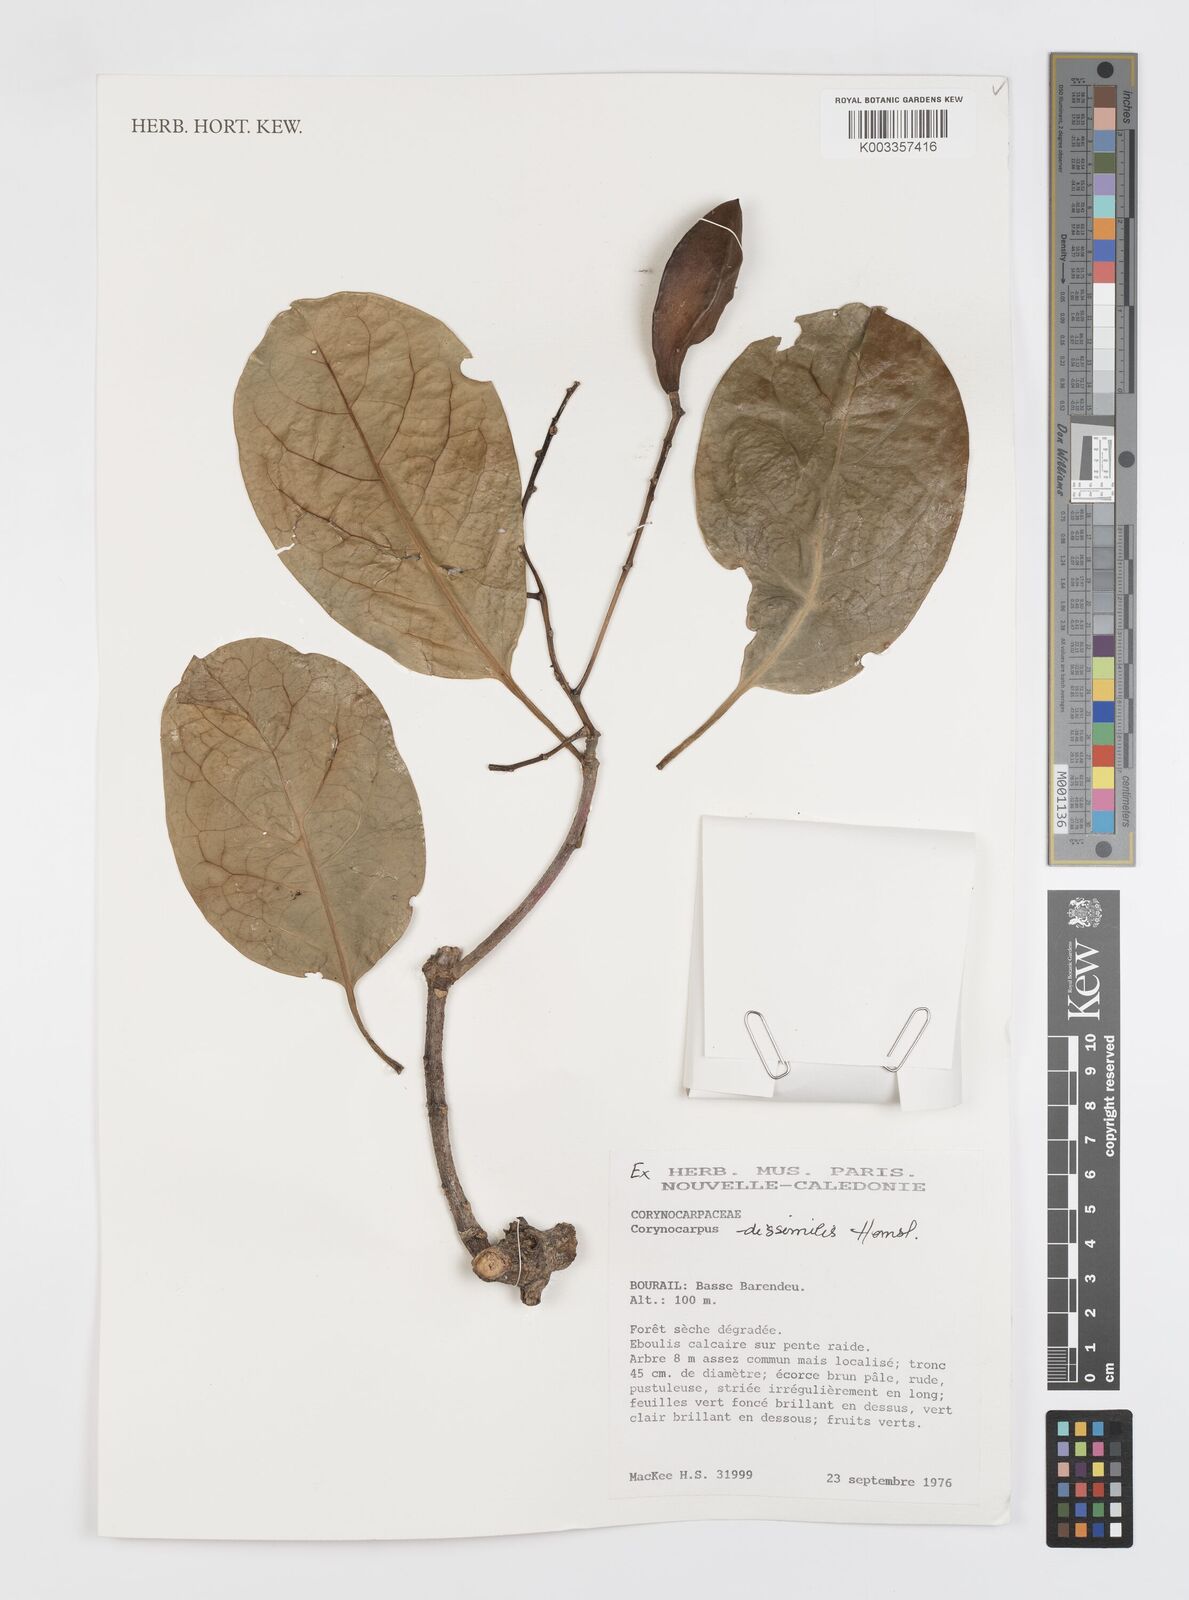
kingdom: Plantae
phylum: Tracheophyta
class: Magnoliopsida
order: Cucurbitales
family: Corynocarpaceae
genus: Corynocarpus
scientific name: Corynocarpus dissimilis
